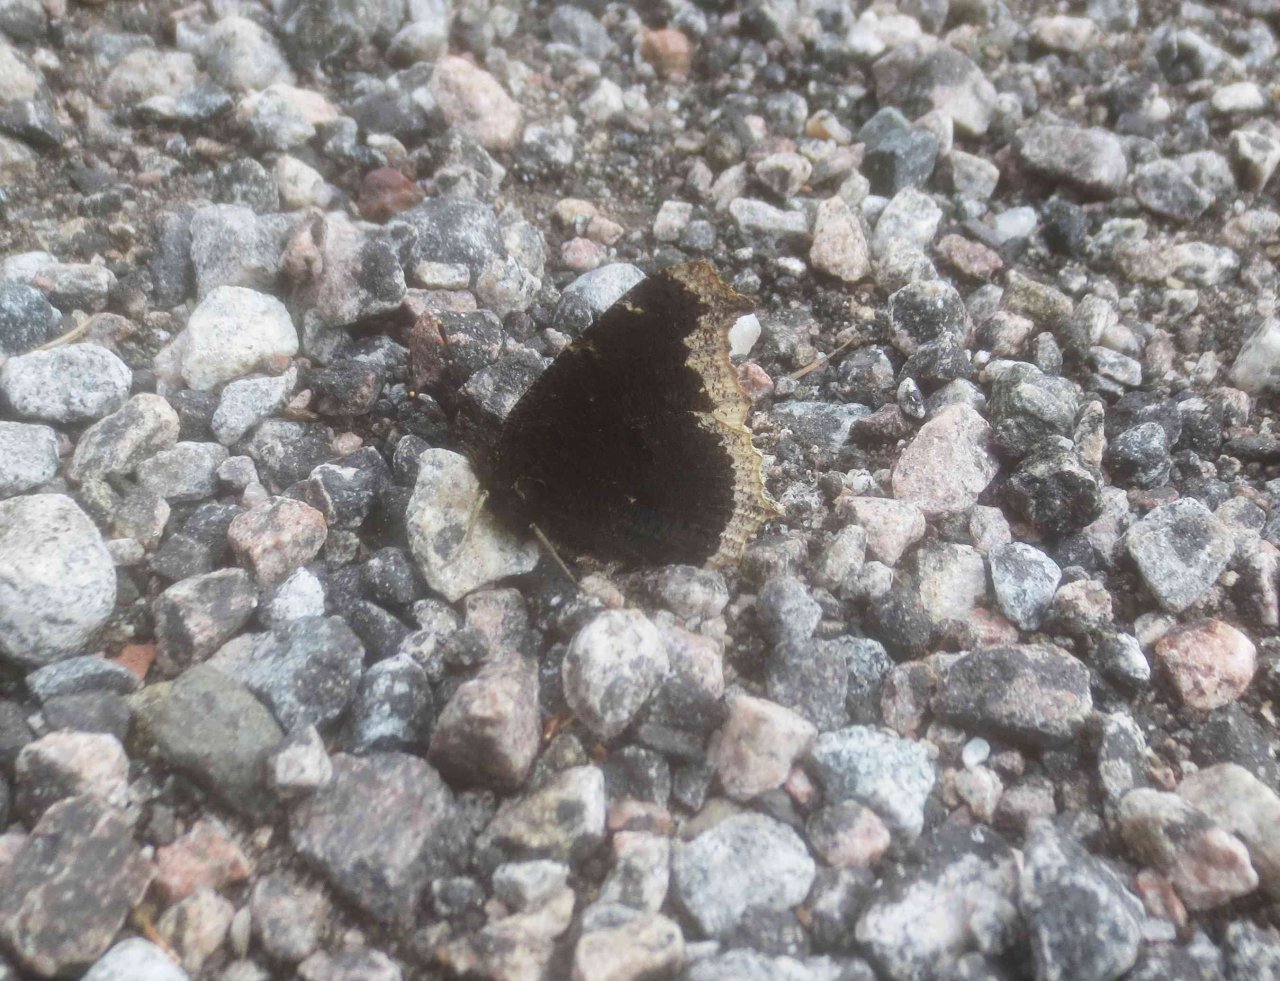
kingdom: Animalia
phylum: Arthropoda
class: Insecta
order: Lepidoptera
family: Nymphalidae
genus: Nymphalis
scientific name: Nymphalis antiopa
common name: Mourning Cloak
